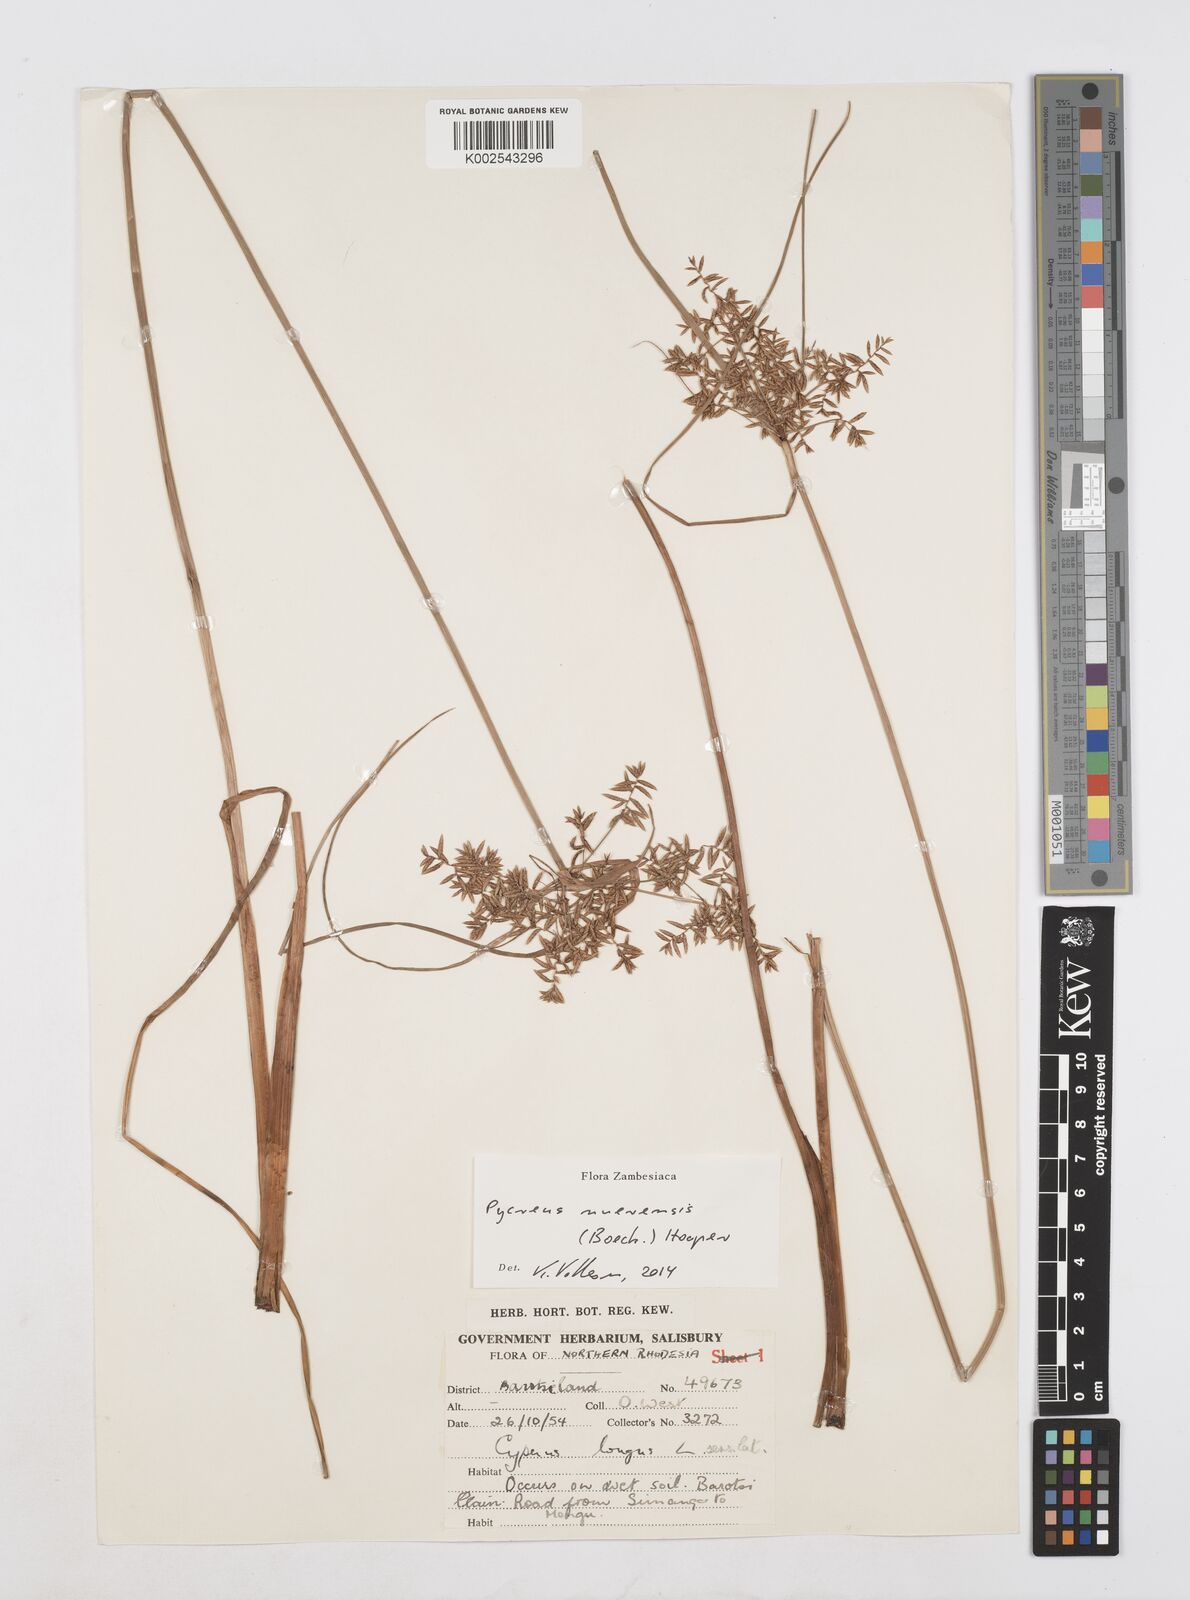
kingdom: Plantae
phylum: Tracheophyta
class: Liliopsida
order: Poales
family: Cyperaceae
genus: Cyperus
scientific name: Cyperus nuerensis
